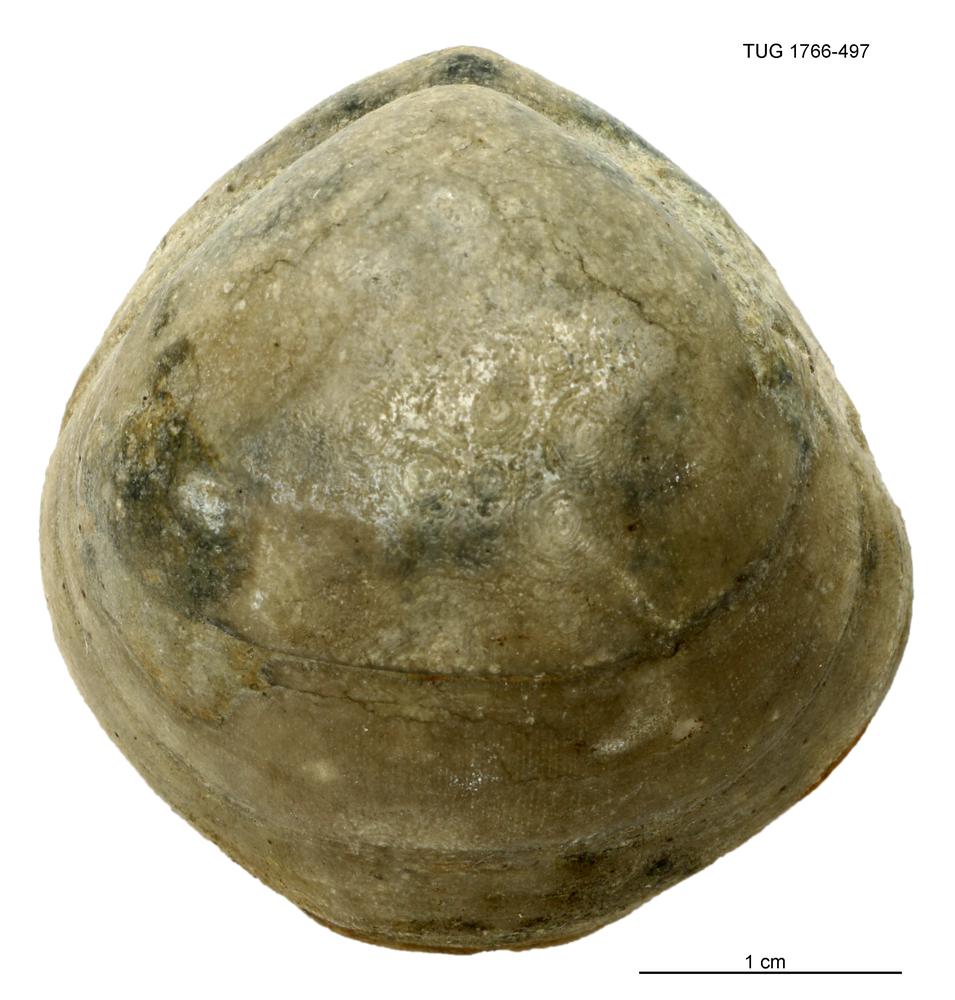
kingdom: Animalia
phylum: Brachiopoda
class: Rhynchonellata
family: Porambonitidae
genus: Porambonites
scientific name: Porambonites
